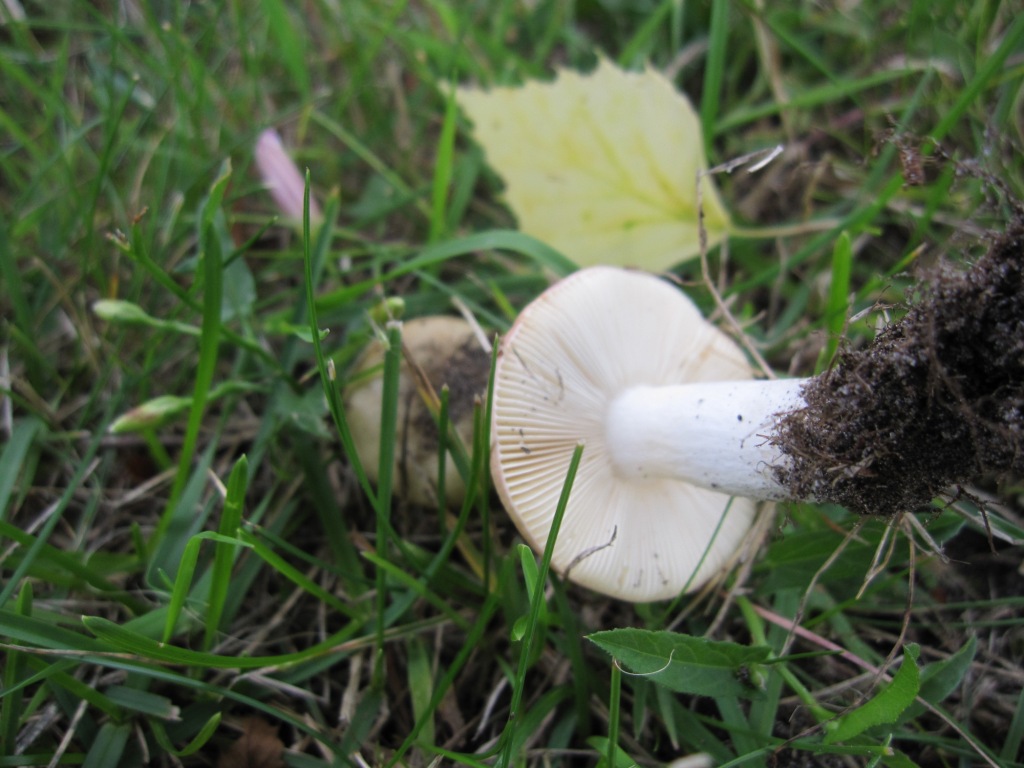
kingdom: Fungi
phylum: Basidiomycota
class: Agaricomycetes
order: Russulales
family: Russulaceae
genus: Russula
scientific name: Russula depallens
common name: falmende skørhat
